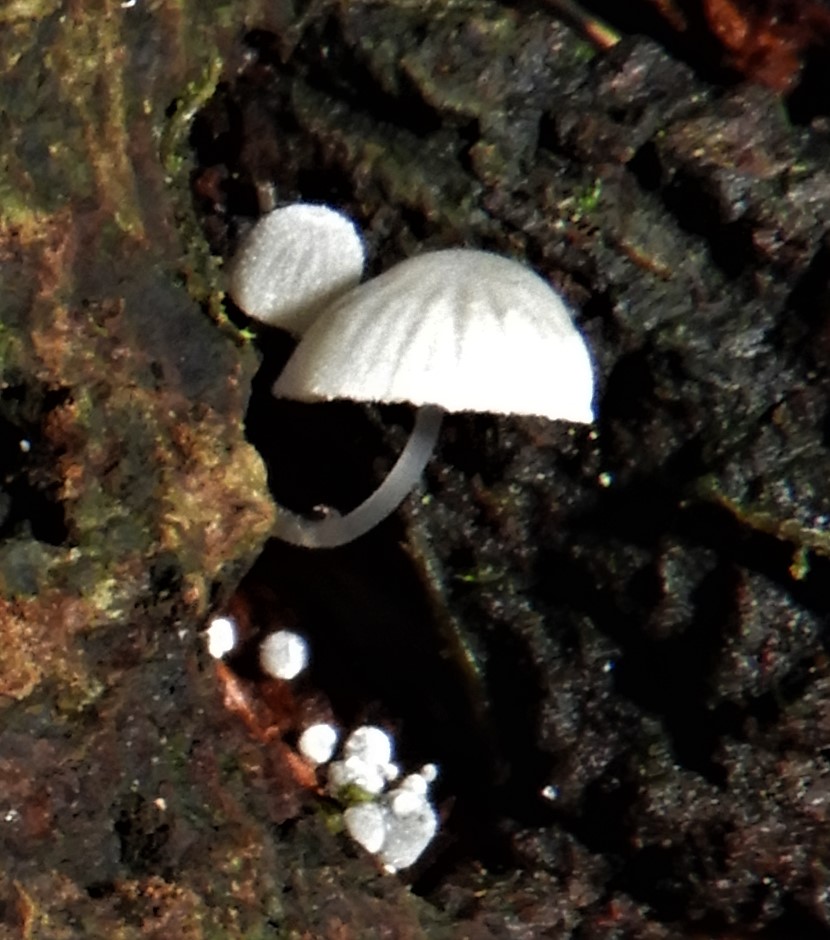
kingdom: Fungi
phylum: Basidiomycota
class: Agaricomycetes
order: Agaricales
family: Mycenaceae
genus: Mycena
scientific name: Mycena
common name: huesvamp
